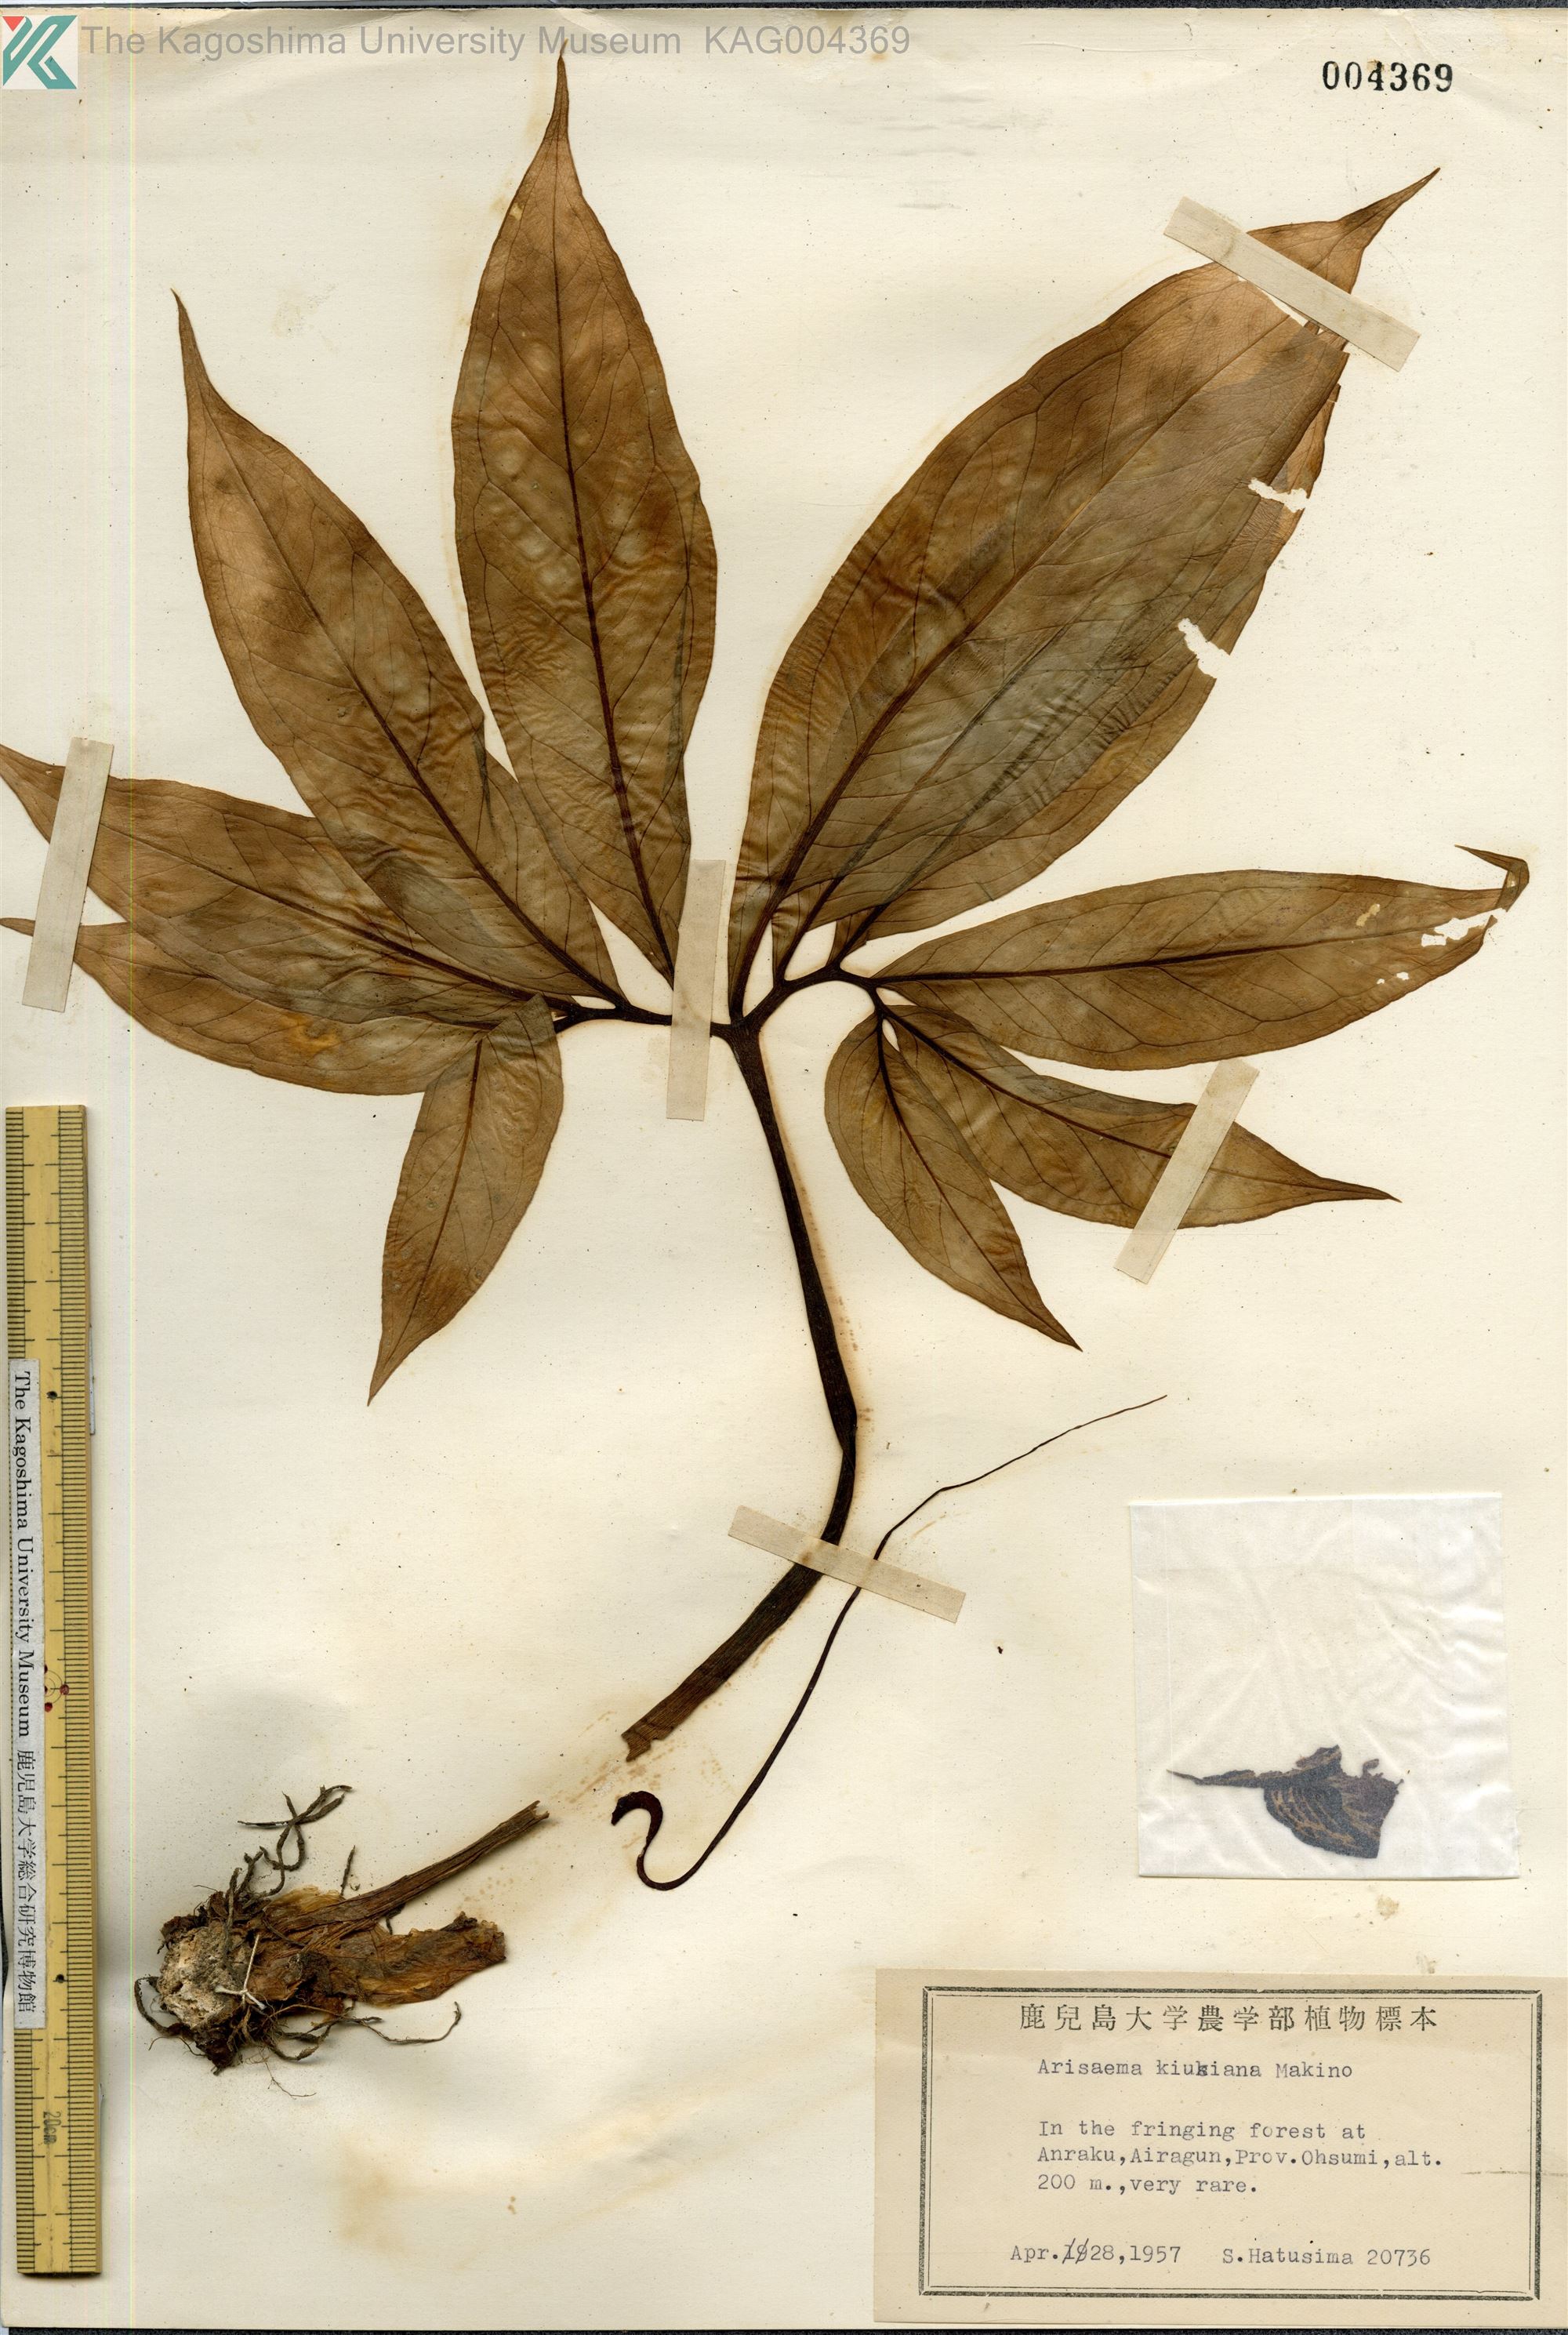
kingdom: Plantae
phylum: Tracheophyta
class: Liliopsida
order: Alismatales
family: Araceae
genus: Arisaema
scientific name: Arisaema kiushianum
